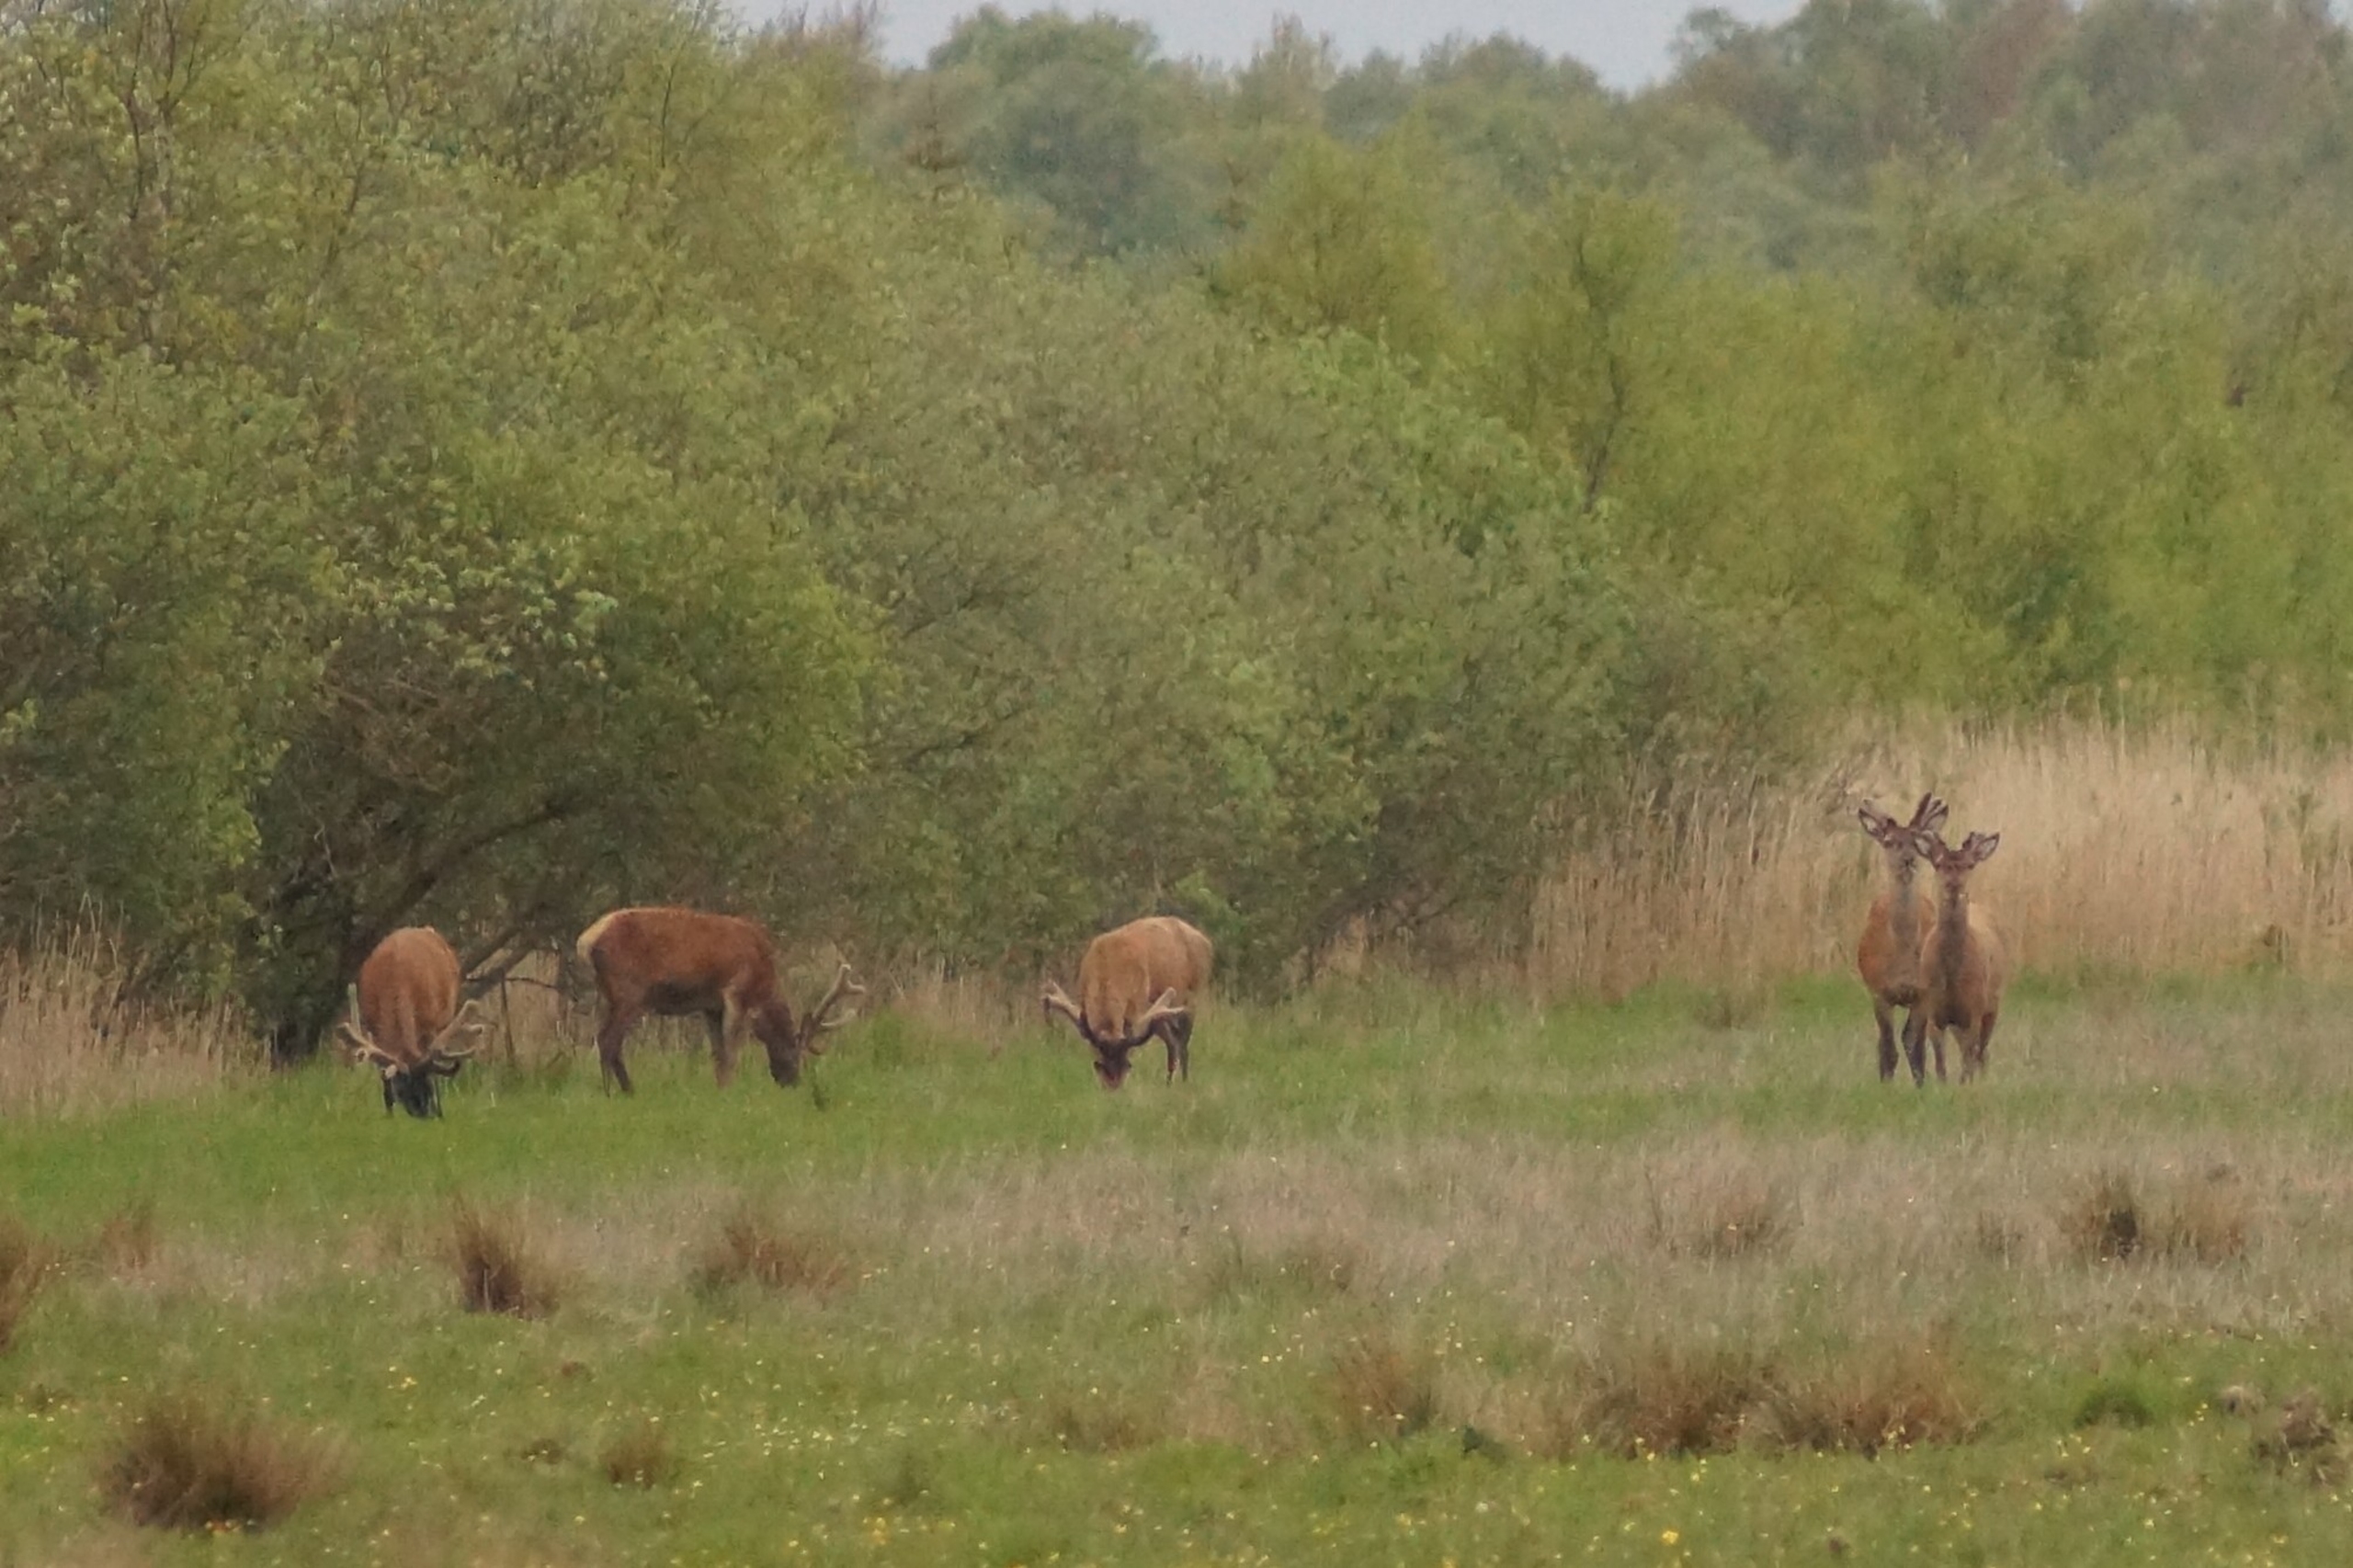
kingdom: Animalia
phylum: Chordata
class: Mammalia
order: Artiodactyla
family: Cervidae
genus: Cervus
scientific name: Cervus elaphus
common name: Krondyr
